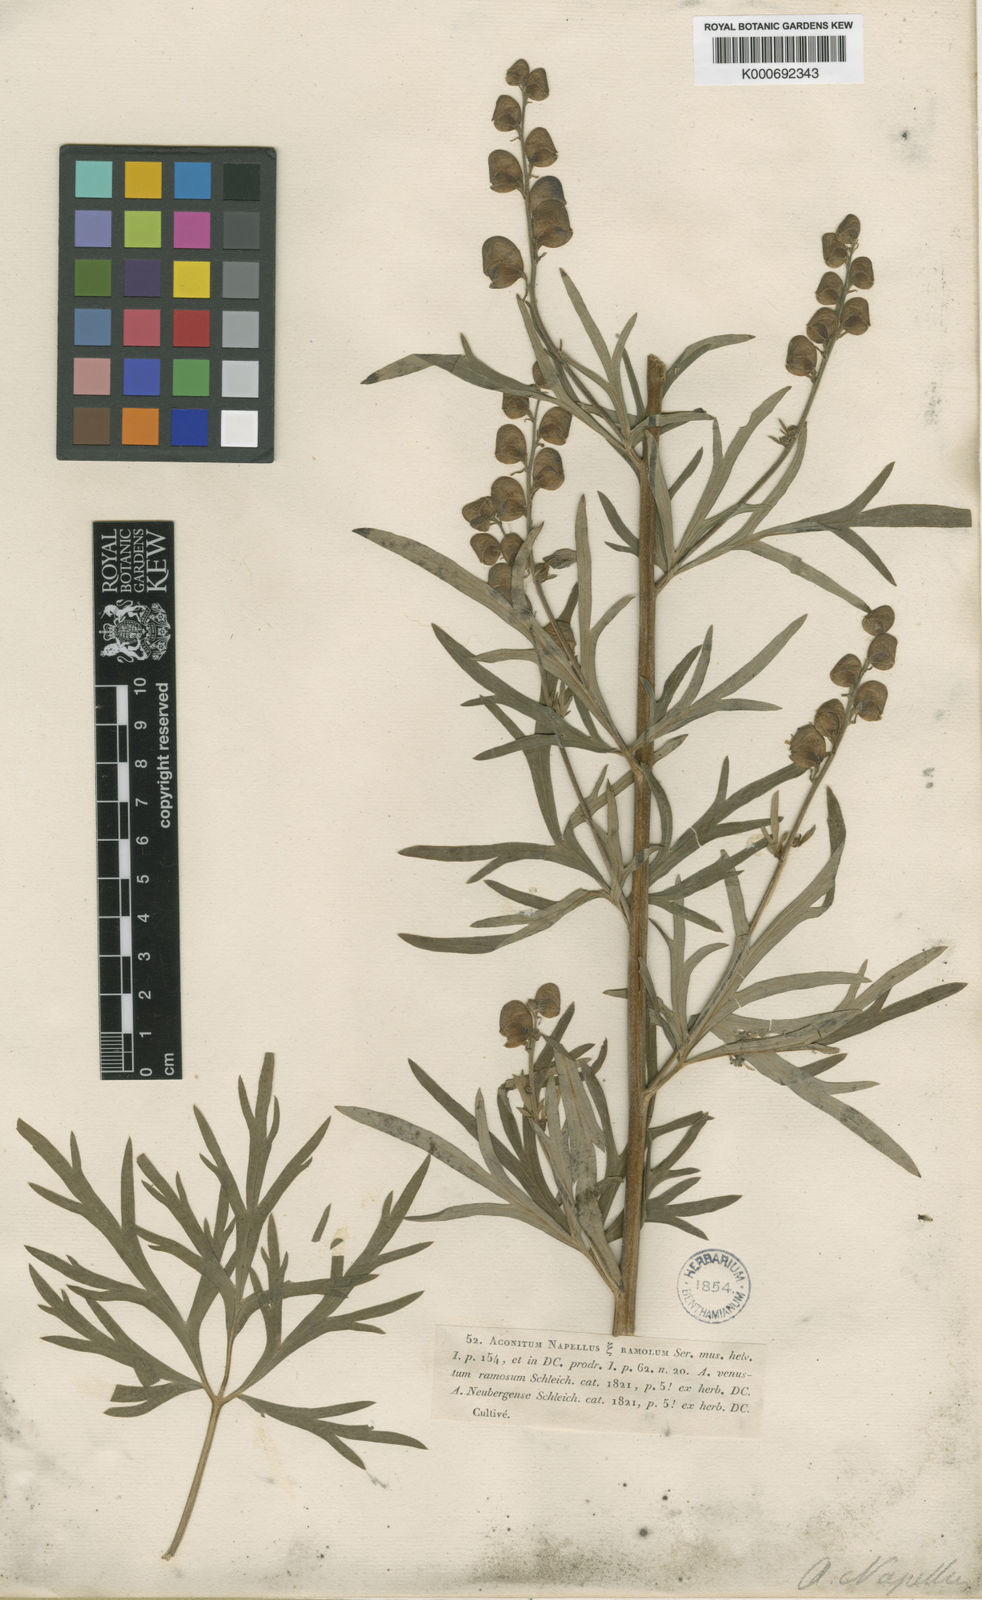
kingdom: Plantae
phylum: Tracheophyta
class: Magnoliopsida
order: Ranunculales
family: Ranunculaceae
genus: Aconitum
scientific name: Aconitum napellus
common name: Garden monkshood
